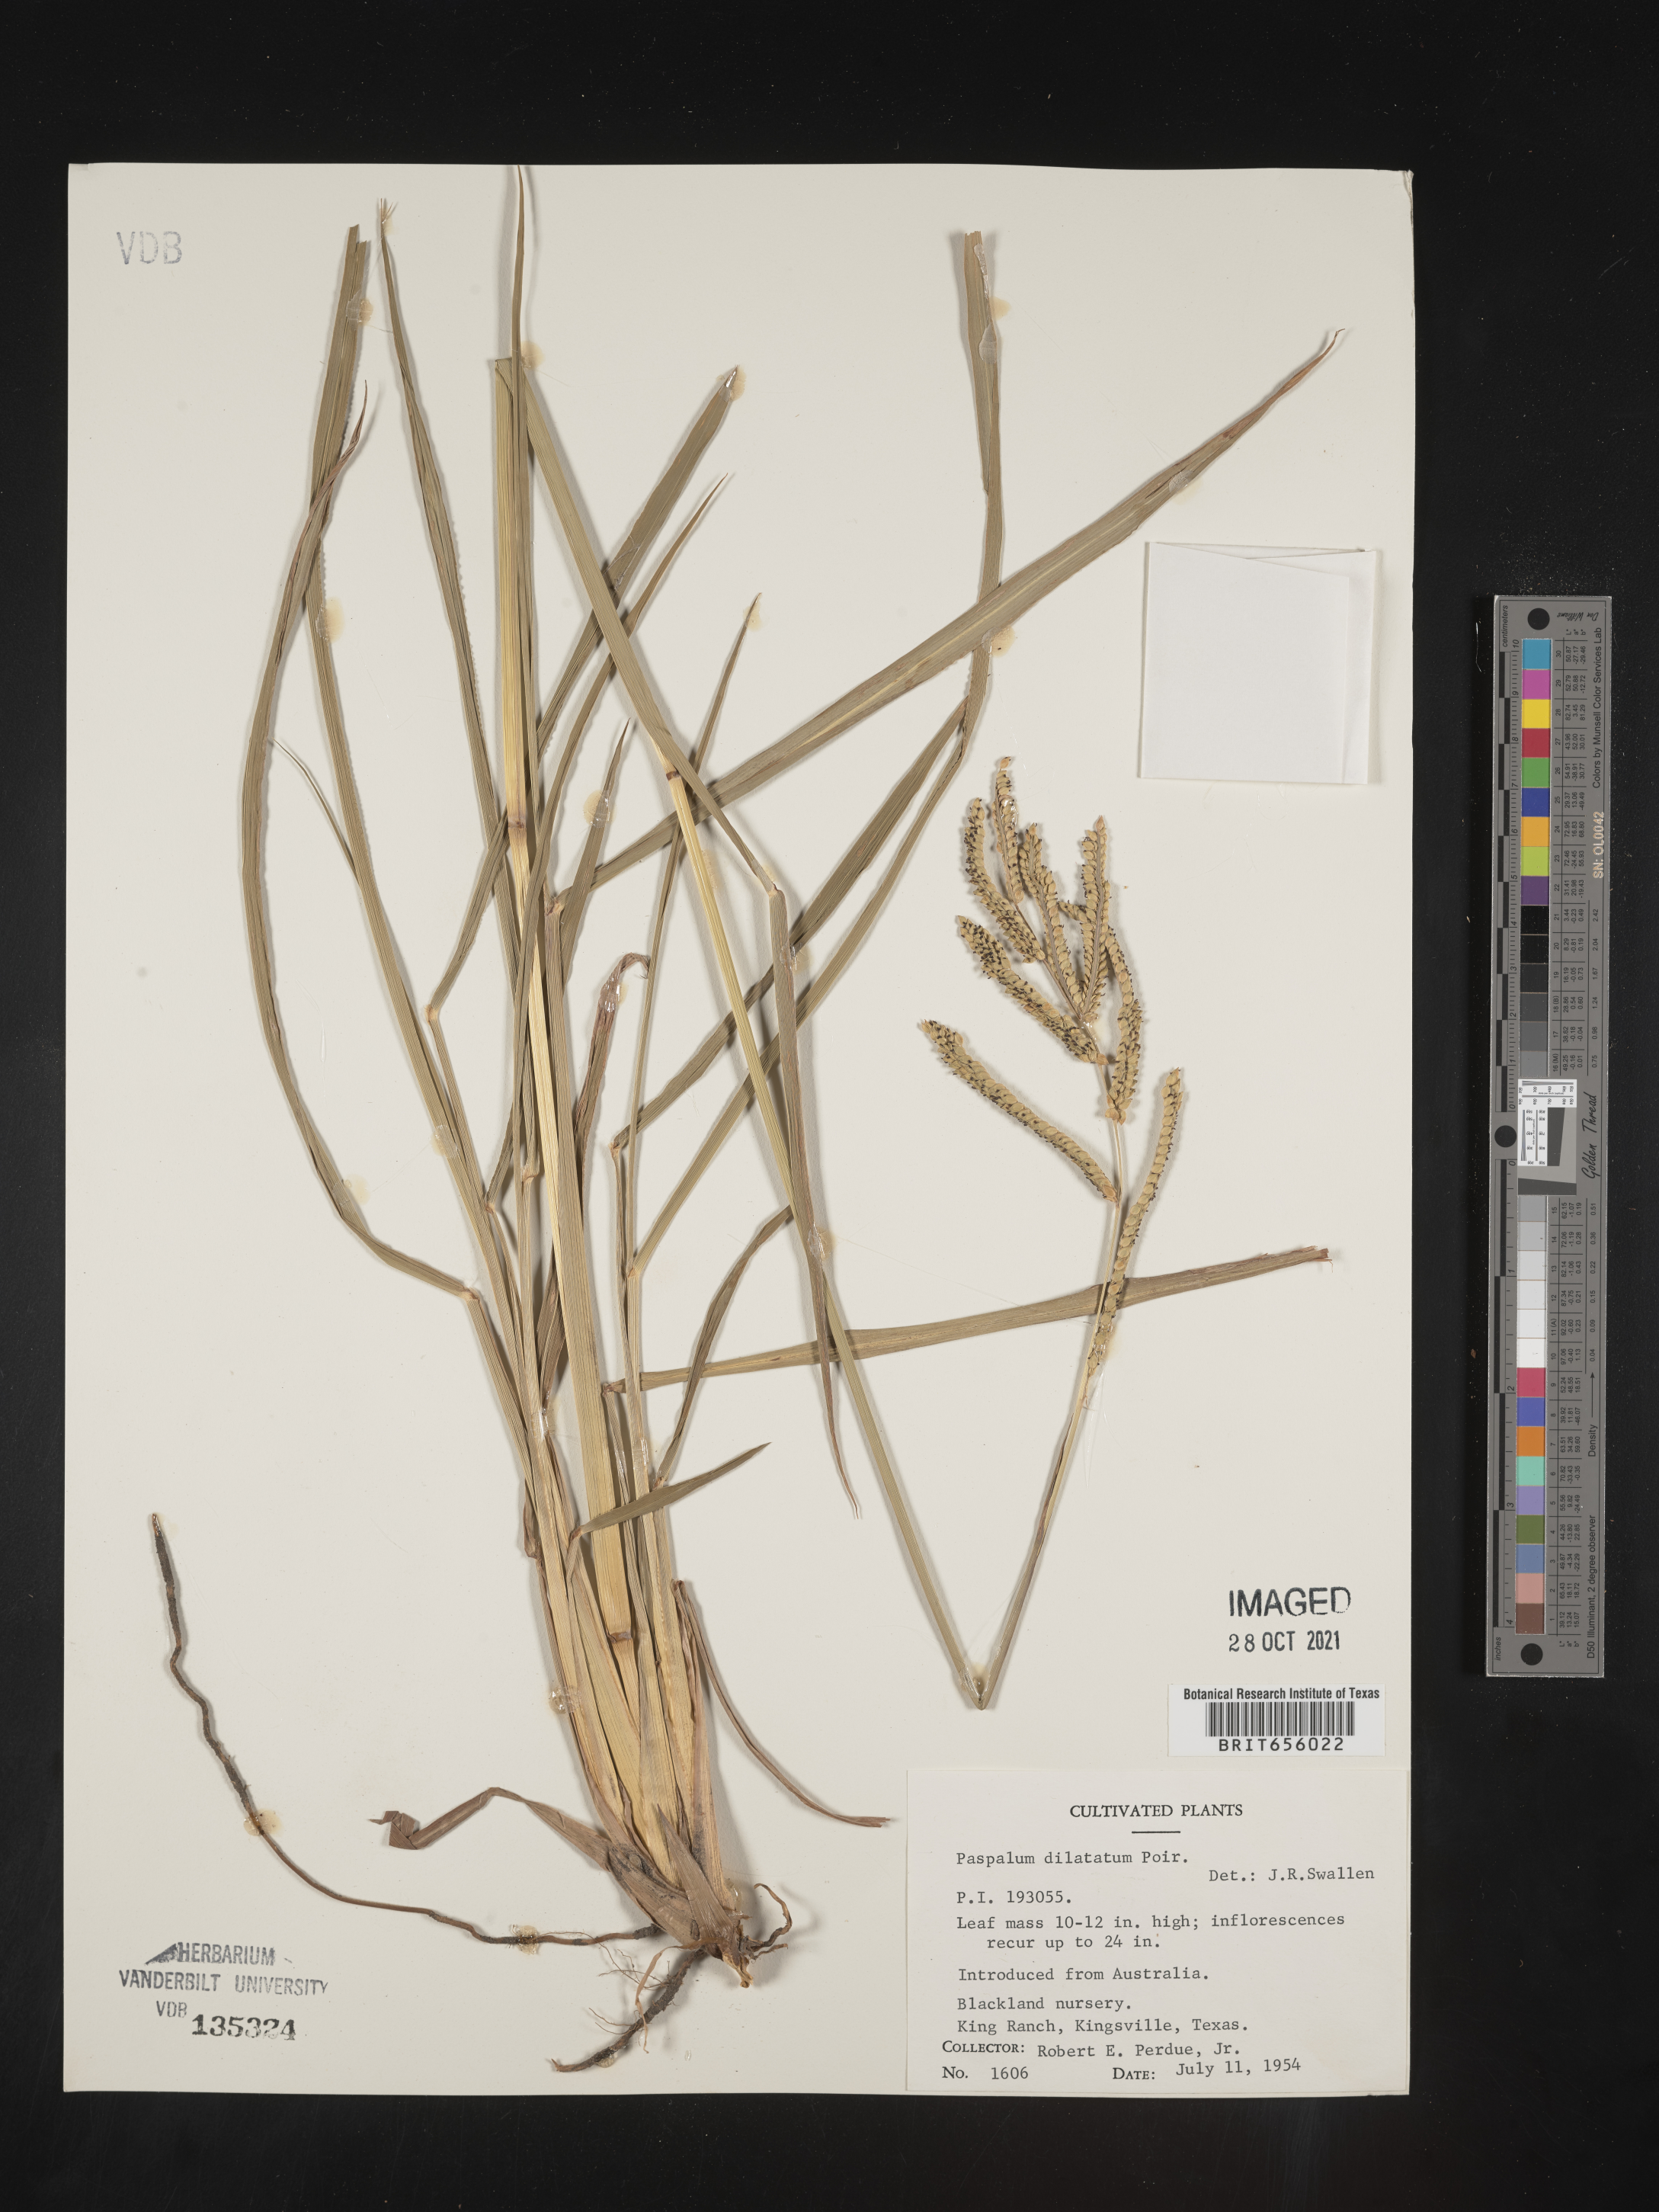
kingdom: Plantae
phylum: Tracheophyta
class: Liliopsida
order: Poales
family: Poaceae
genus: Paspalum
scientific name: Paspalum
